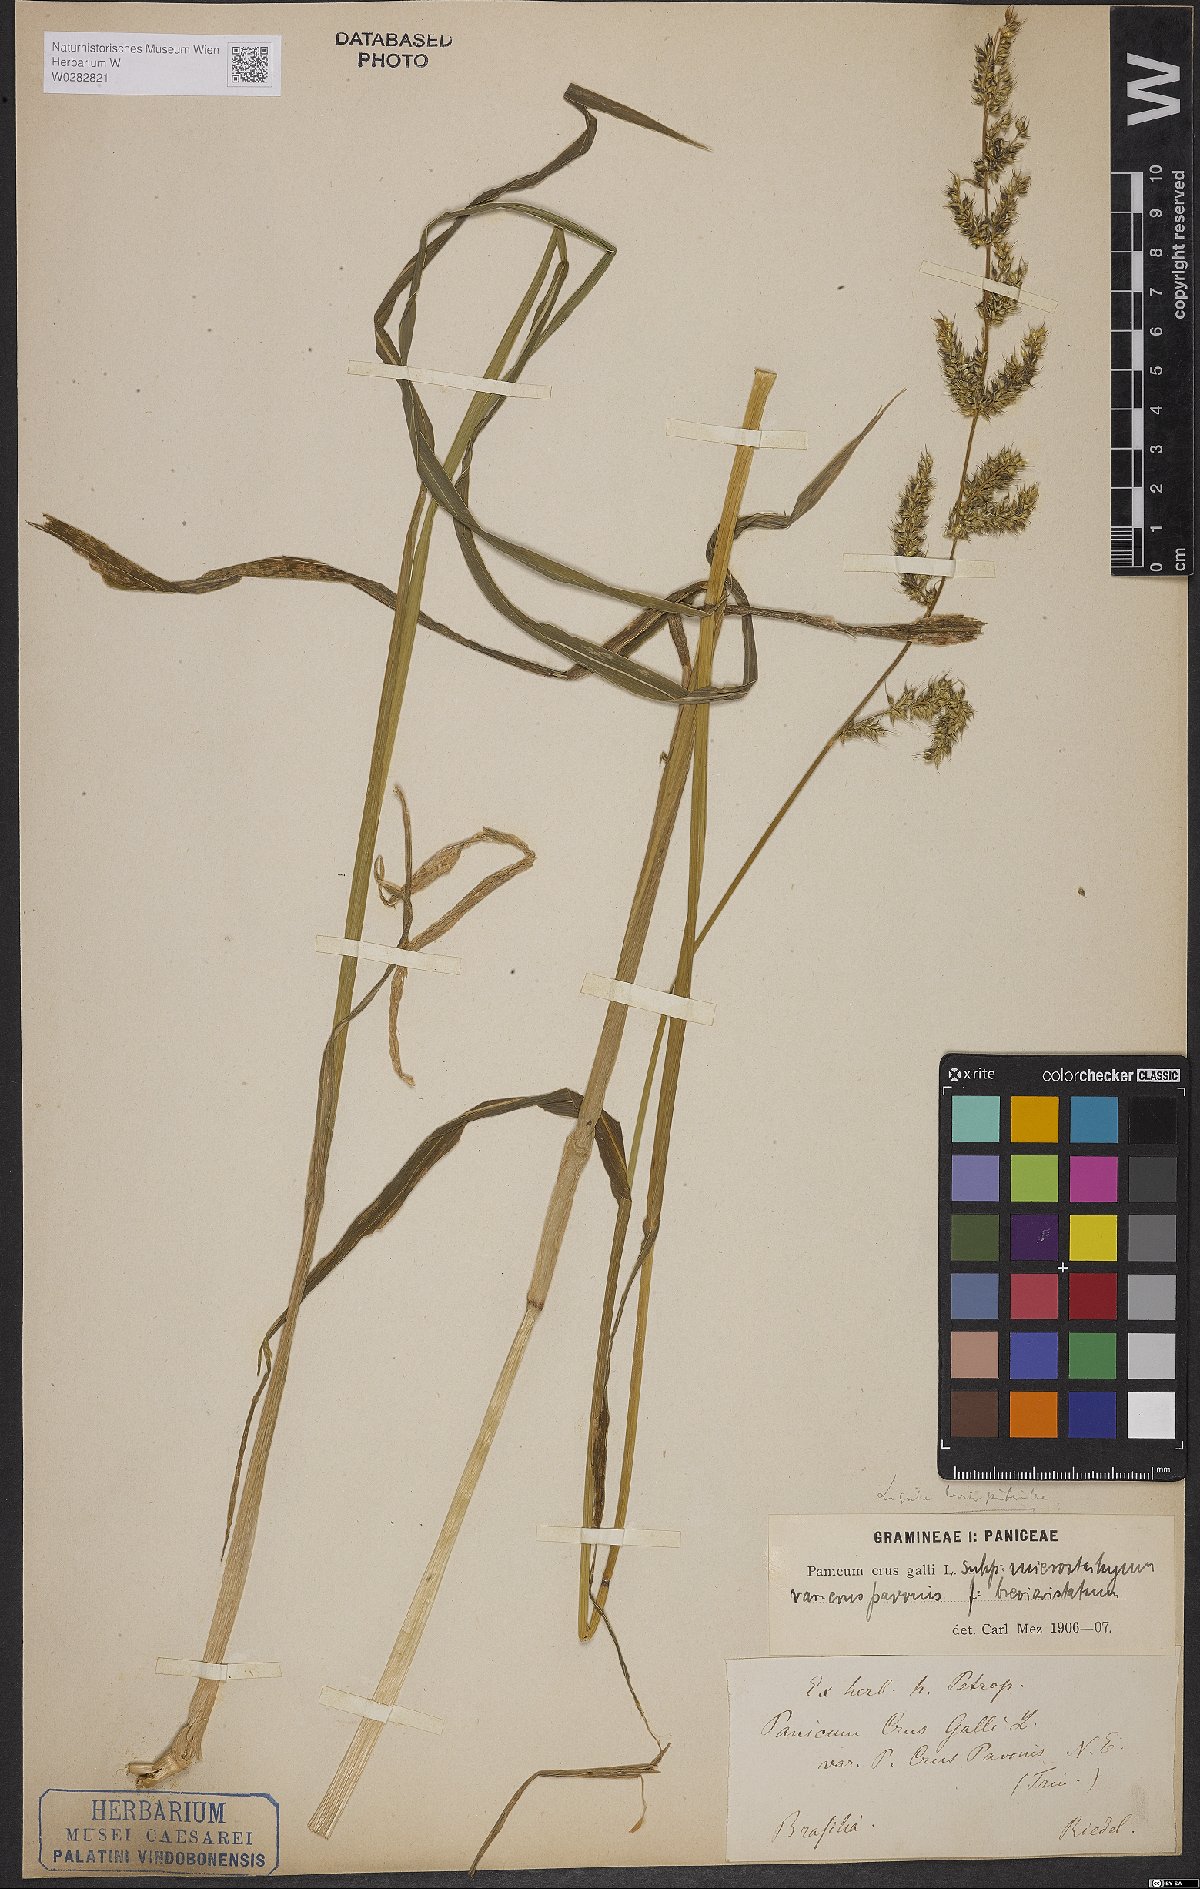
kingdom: Plantae
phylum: Tracheophyta
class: Liliopsida
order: Poales
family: Poaceae
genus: Echinochloa
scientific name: Echinochloa crus-galli
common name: Cockspur
